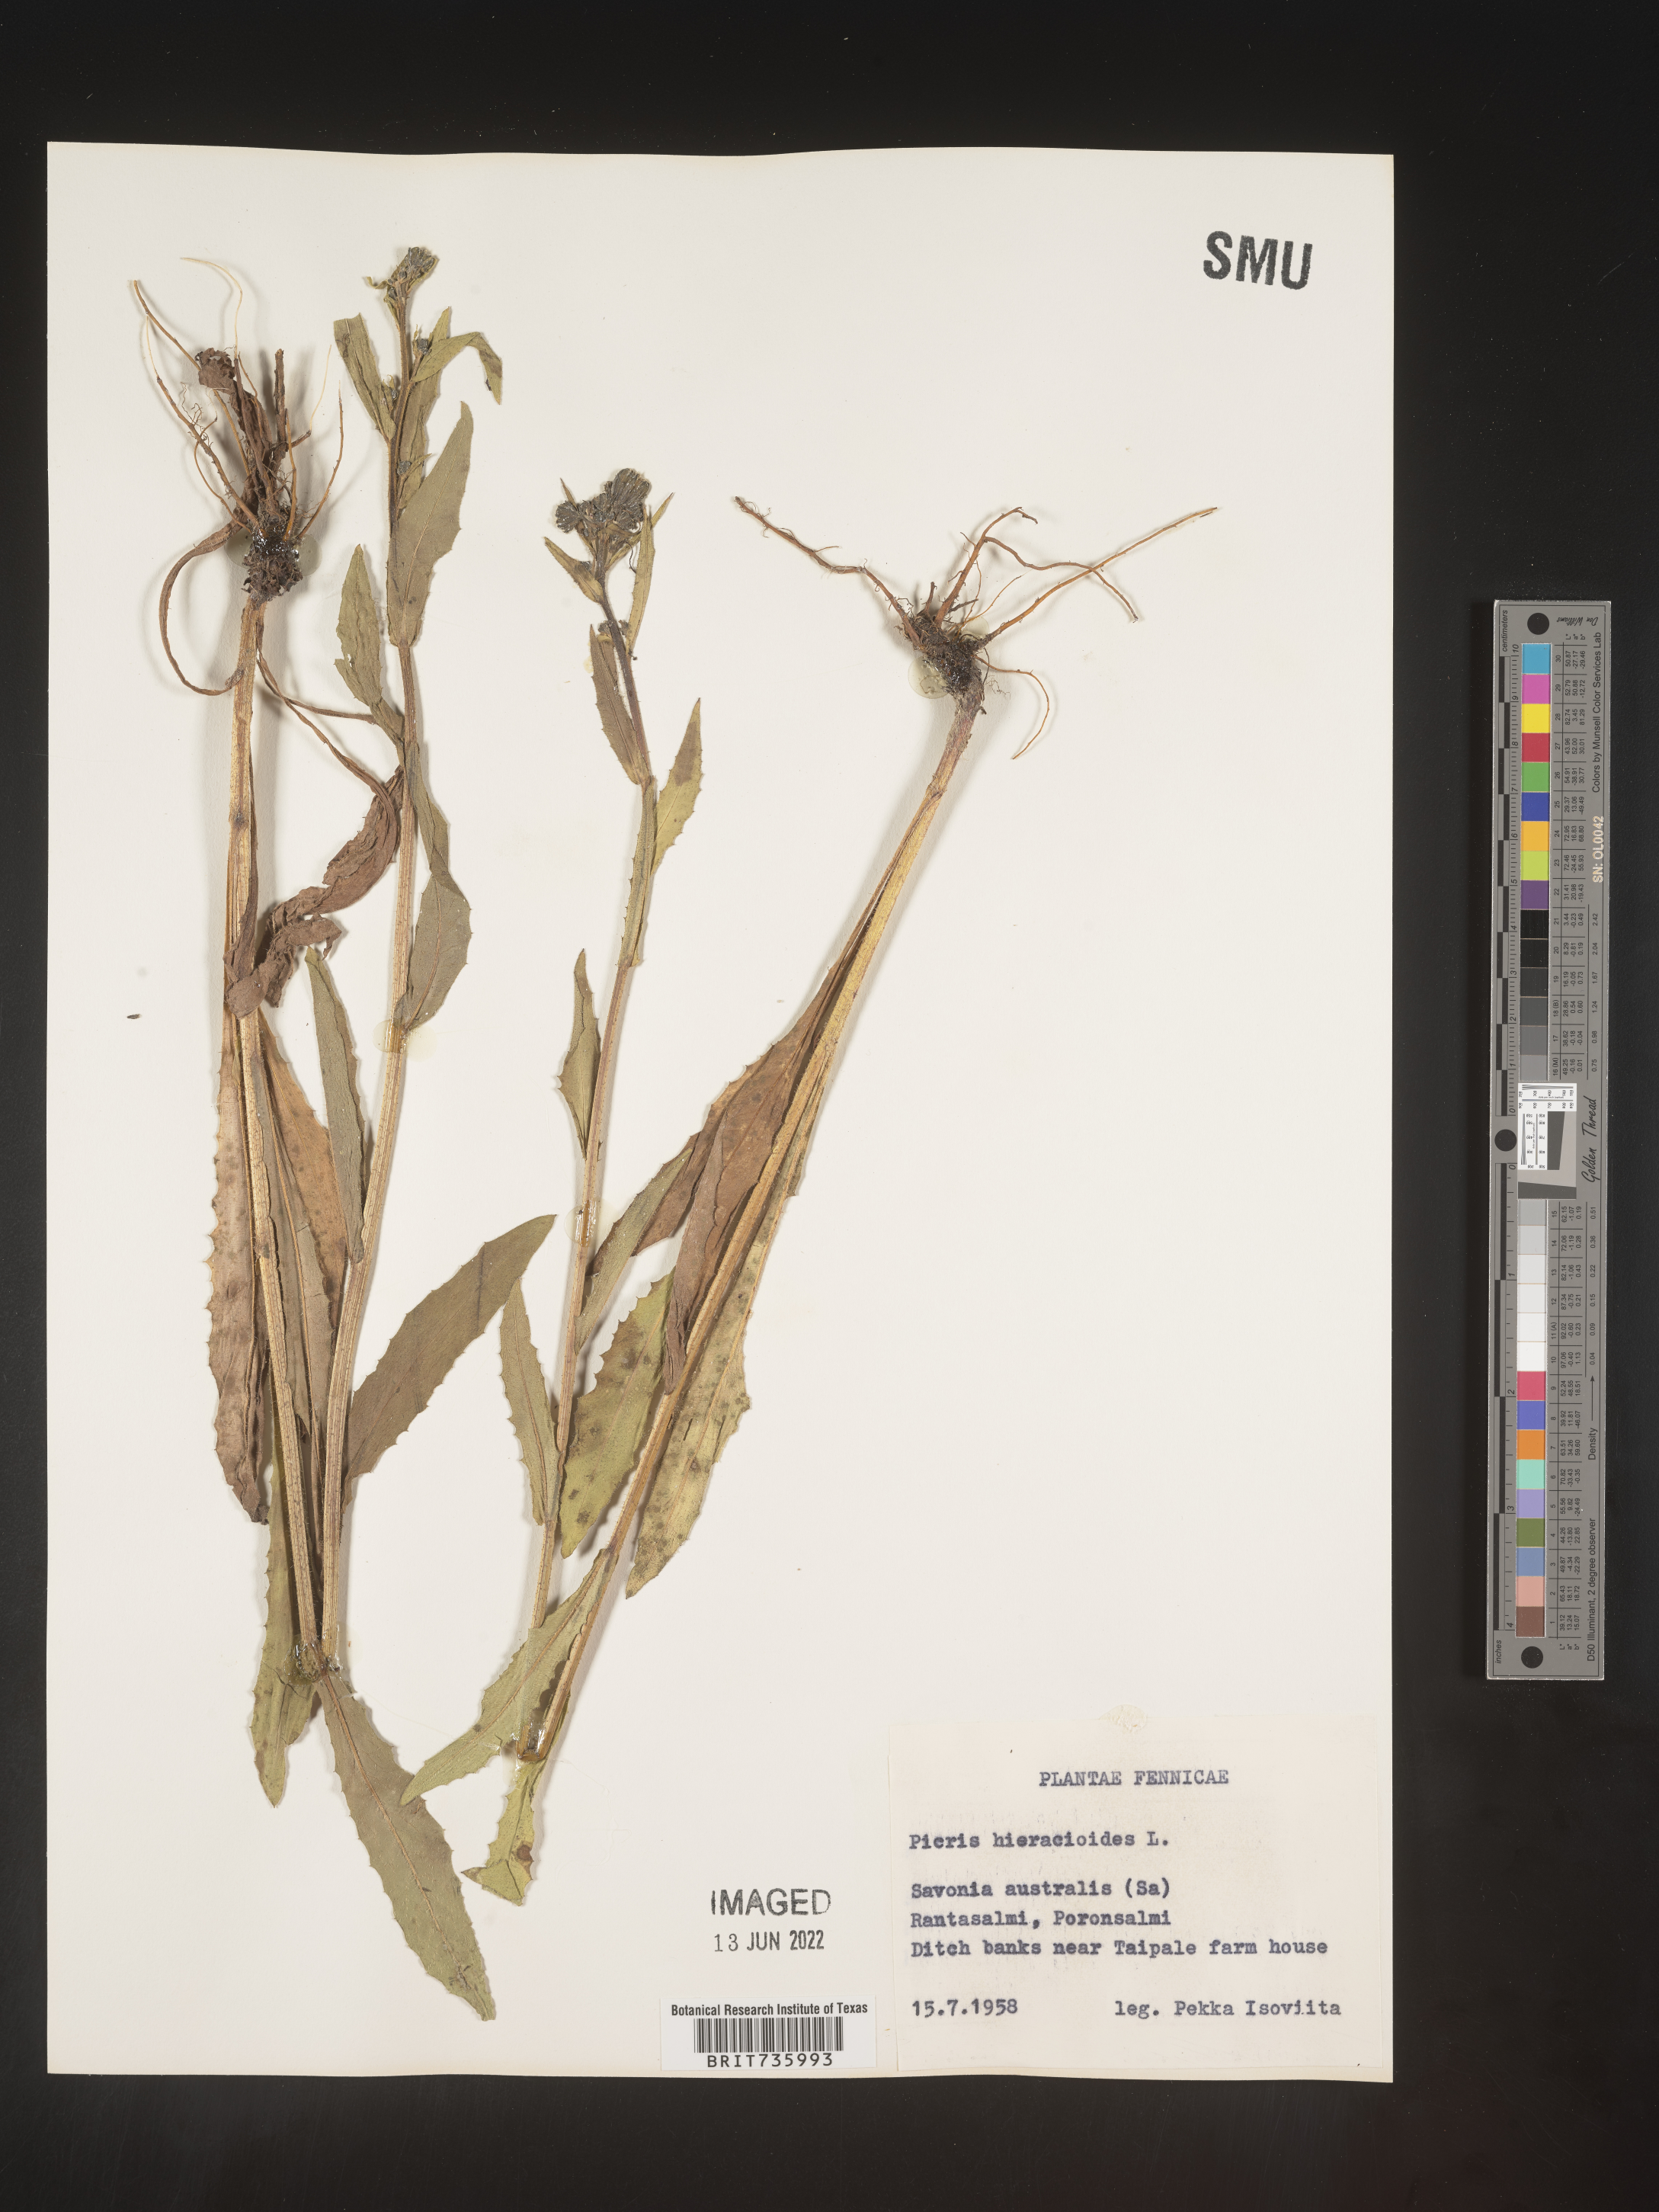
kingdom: Plantae
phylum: Tracheophyta
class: Magnoliopsida
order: Asterales
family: Asteraceae
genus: Picris
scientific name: Picris
